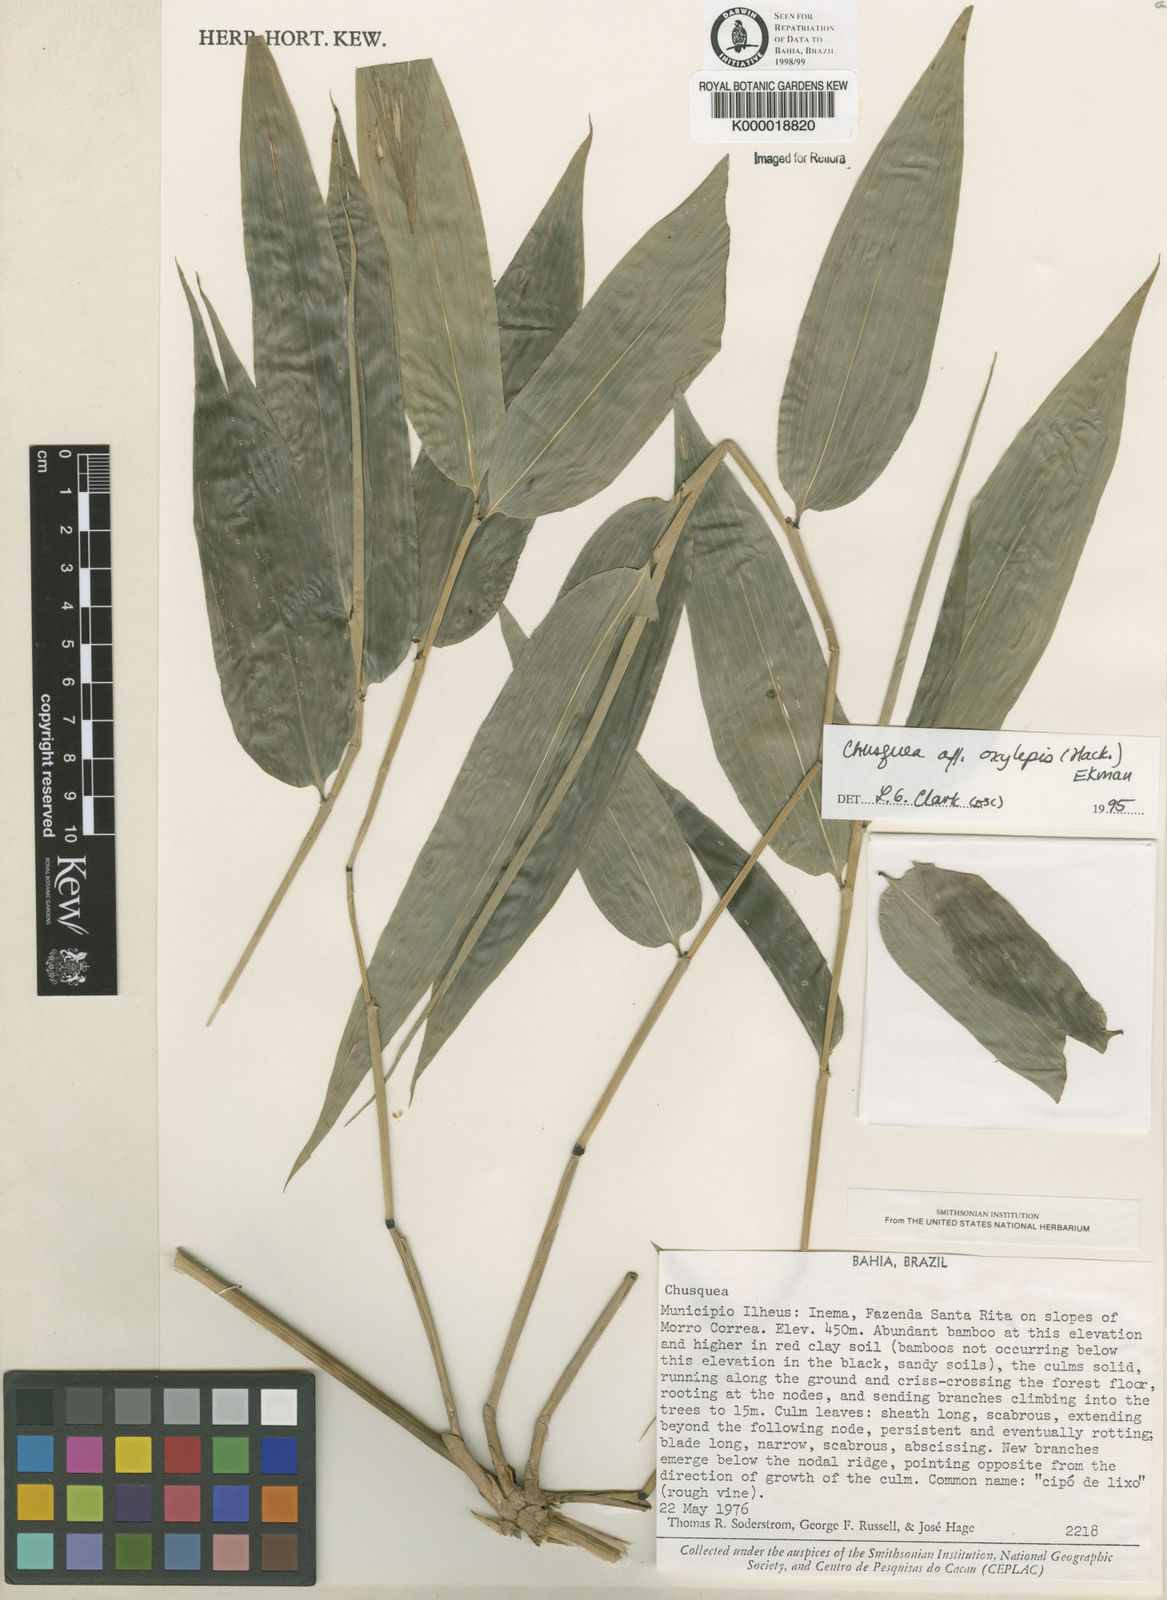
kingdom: Plantae
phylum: Tracheophyta
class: Liliopsida
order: Poales
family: Poaceae
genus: Chusquea
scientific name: Chusquea oxylepis
